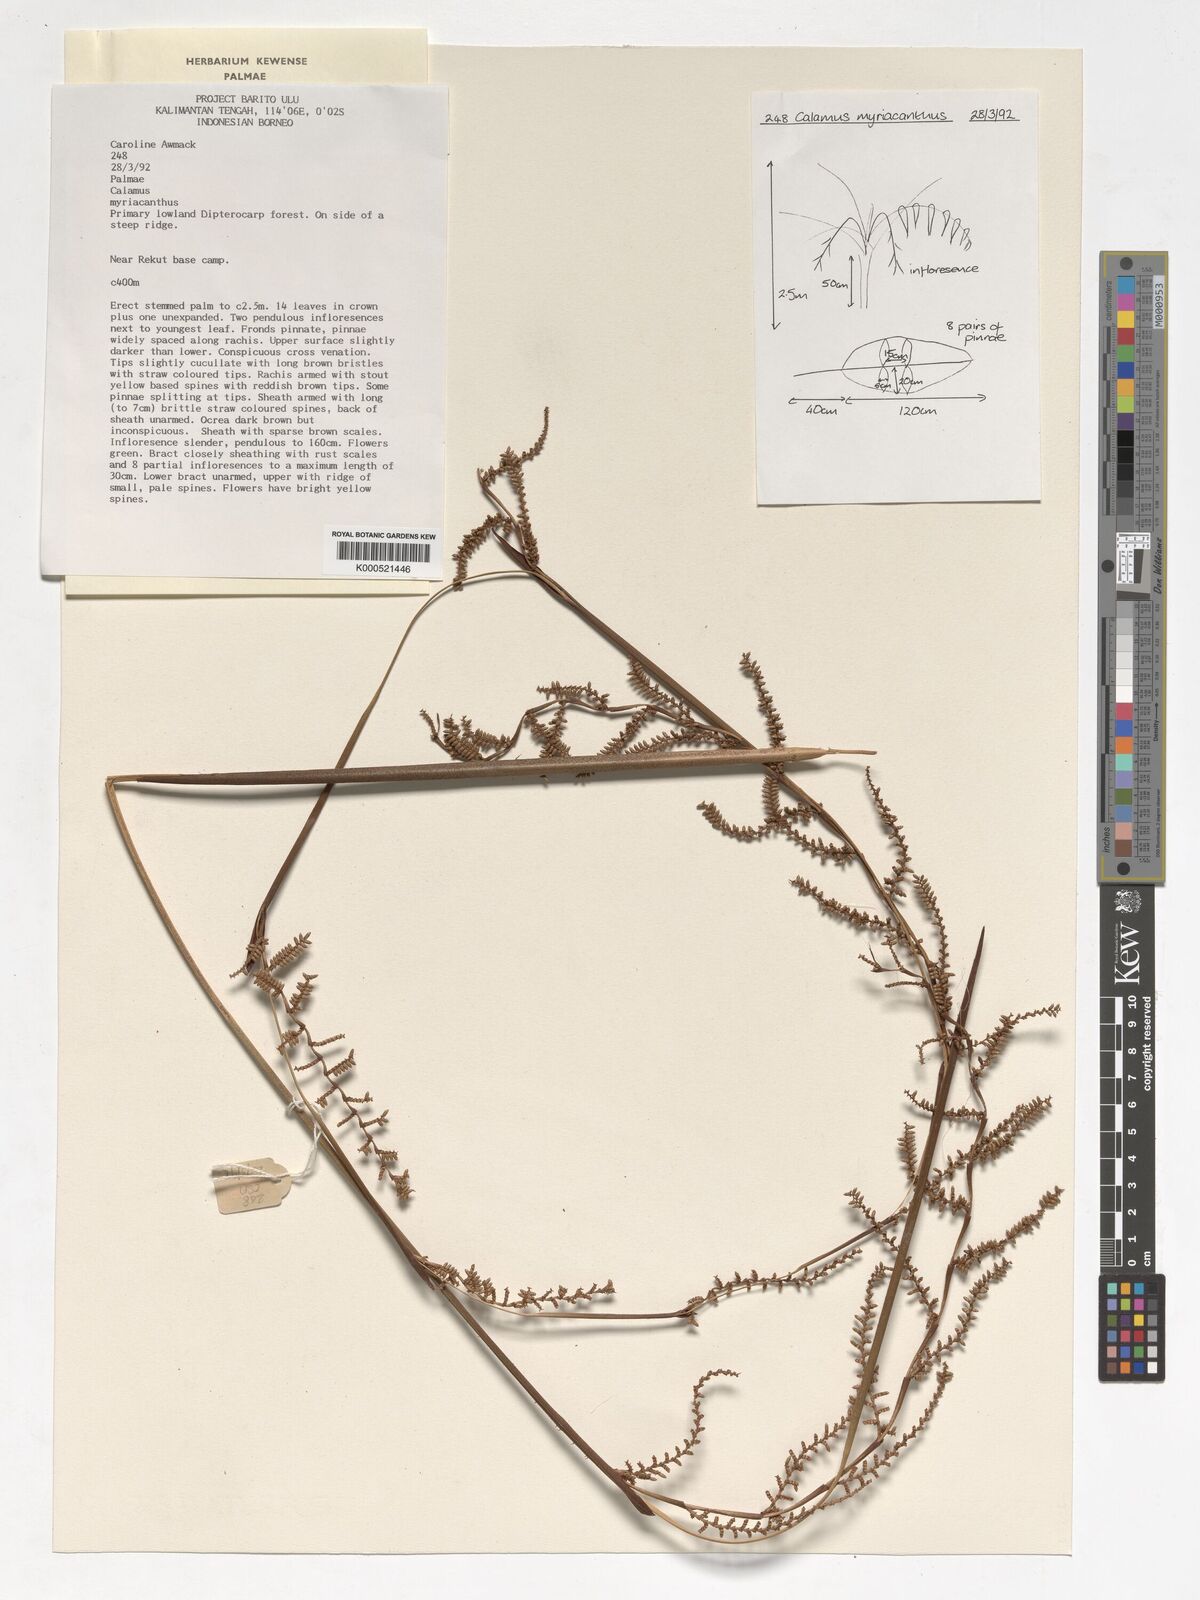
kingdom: Plantae
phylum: Tracheophyta
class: Liliopsida
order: Arecales
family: Arecaceae
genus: Calamus
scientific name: Calamus myriacanthus
